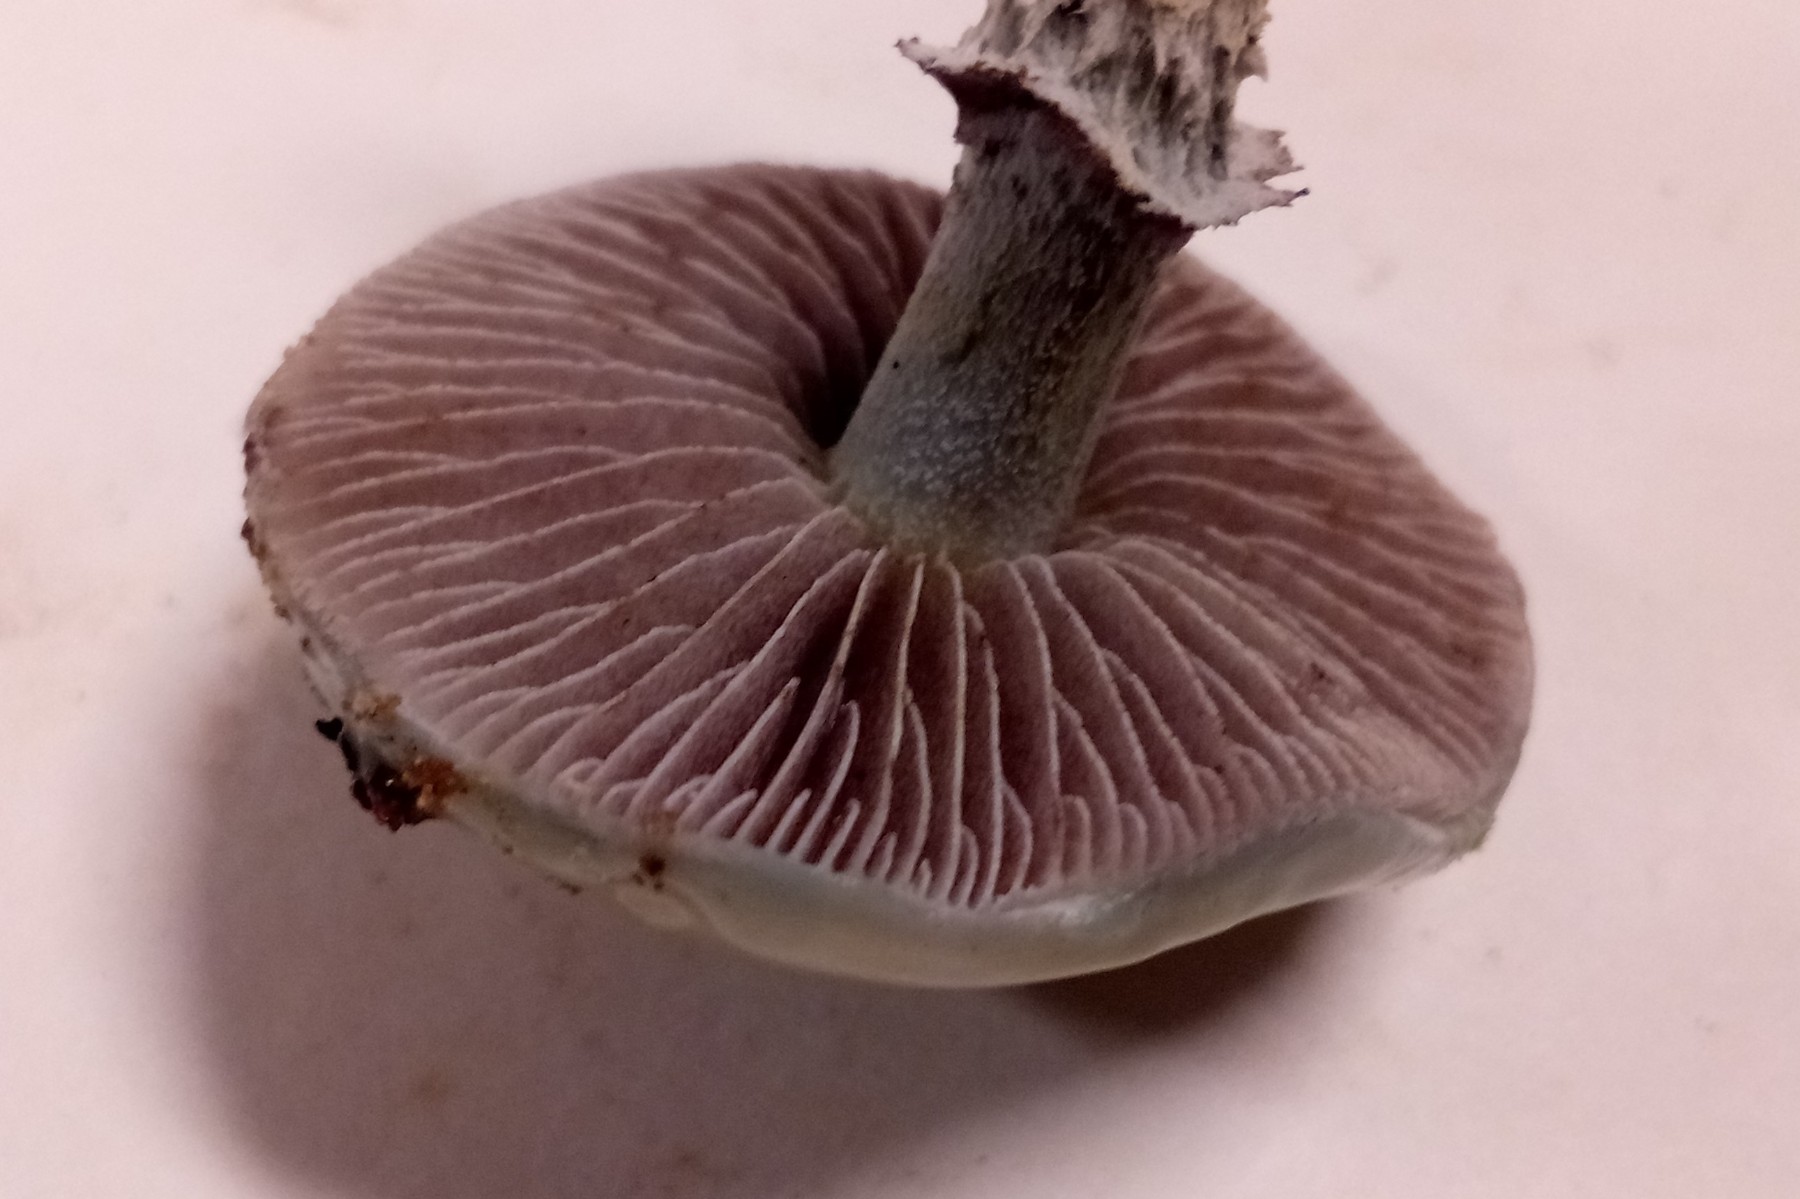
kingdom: Fungi
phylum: Basidiomycota
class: Agaricomycetes
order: Agaricales
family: Strophariaceae
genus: Stropharia
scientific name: Stropharia aeruginosa
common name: spanskgrøn bredblad
